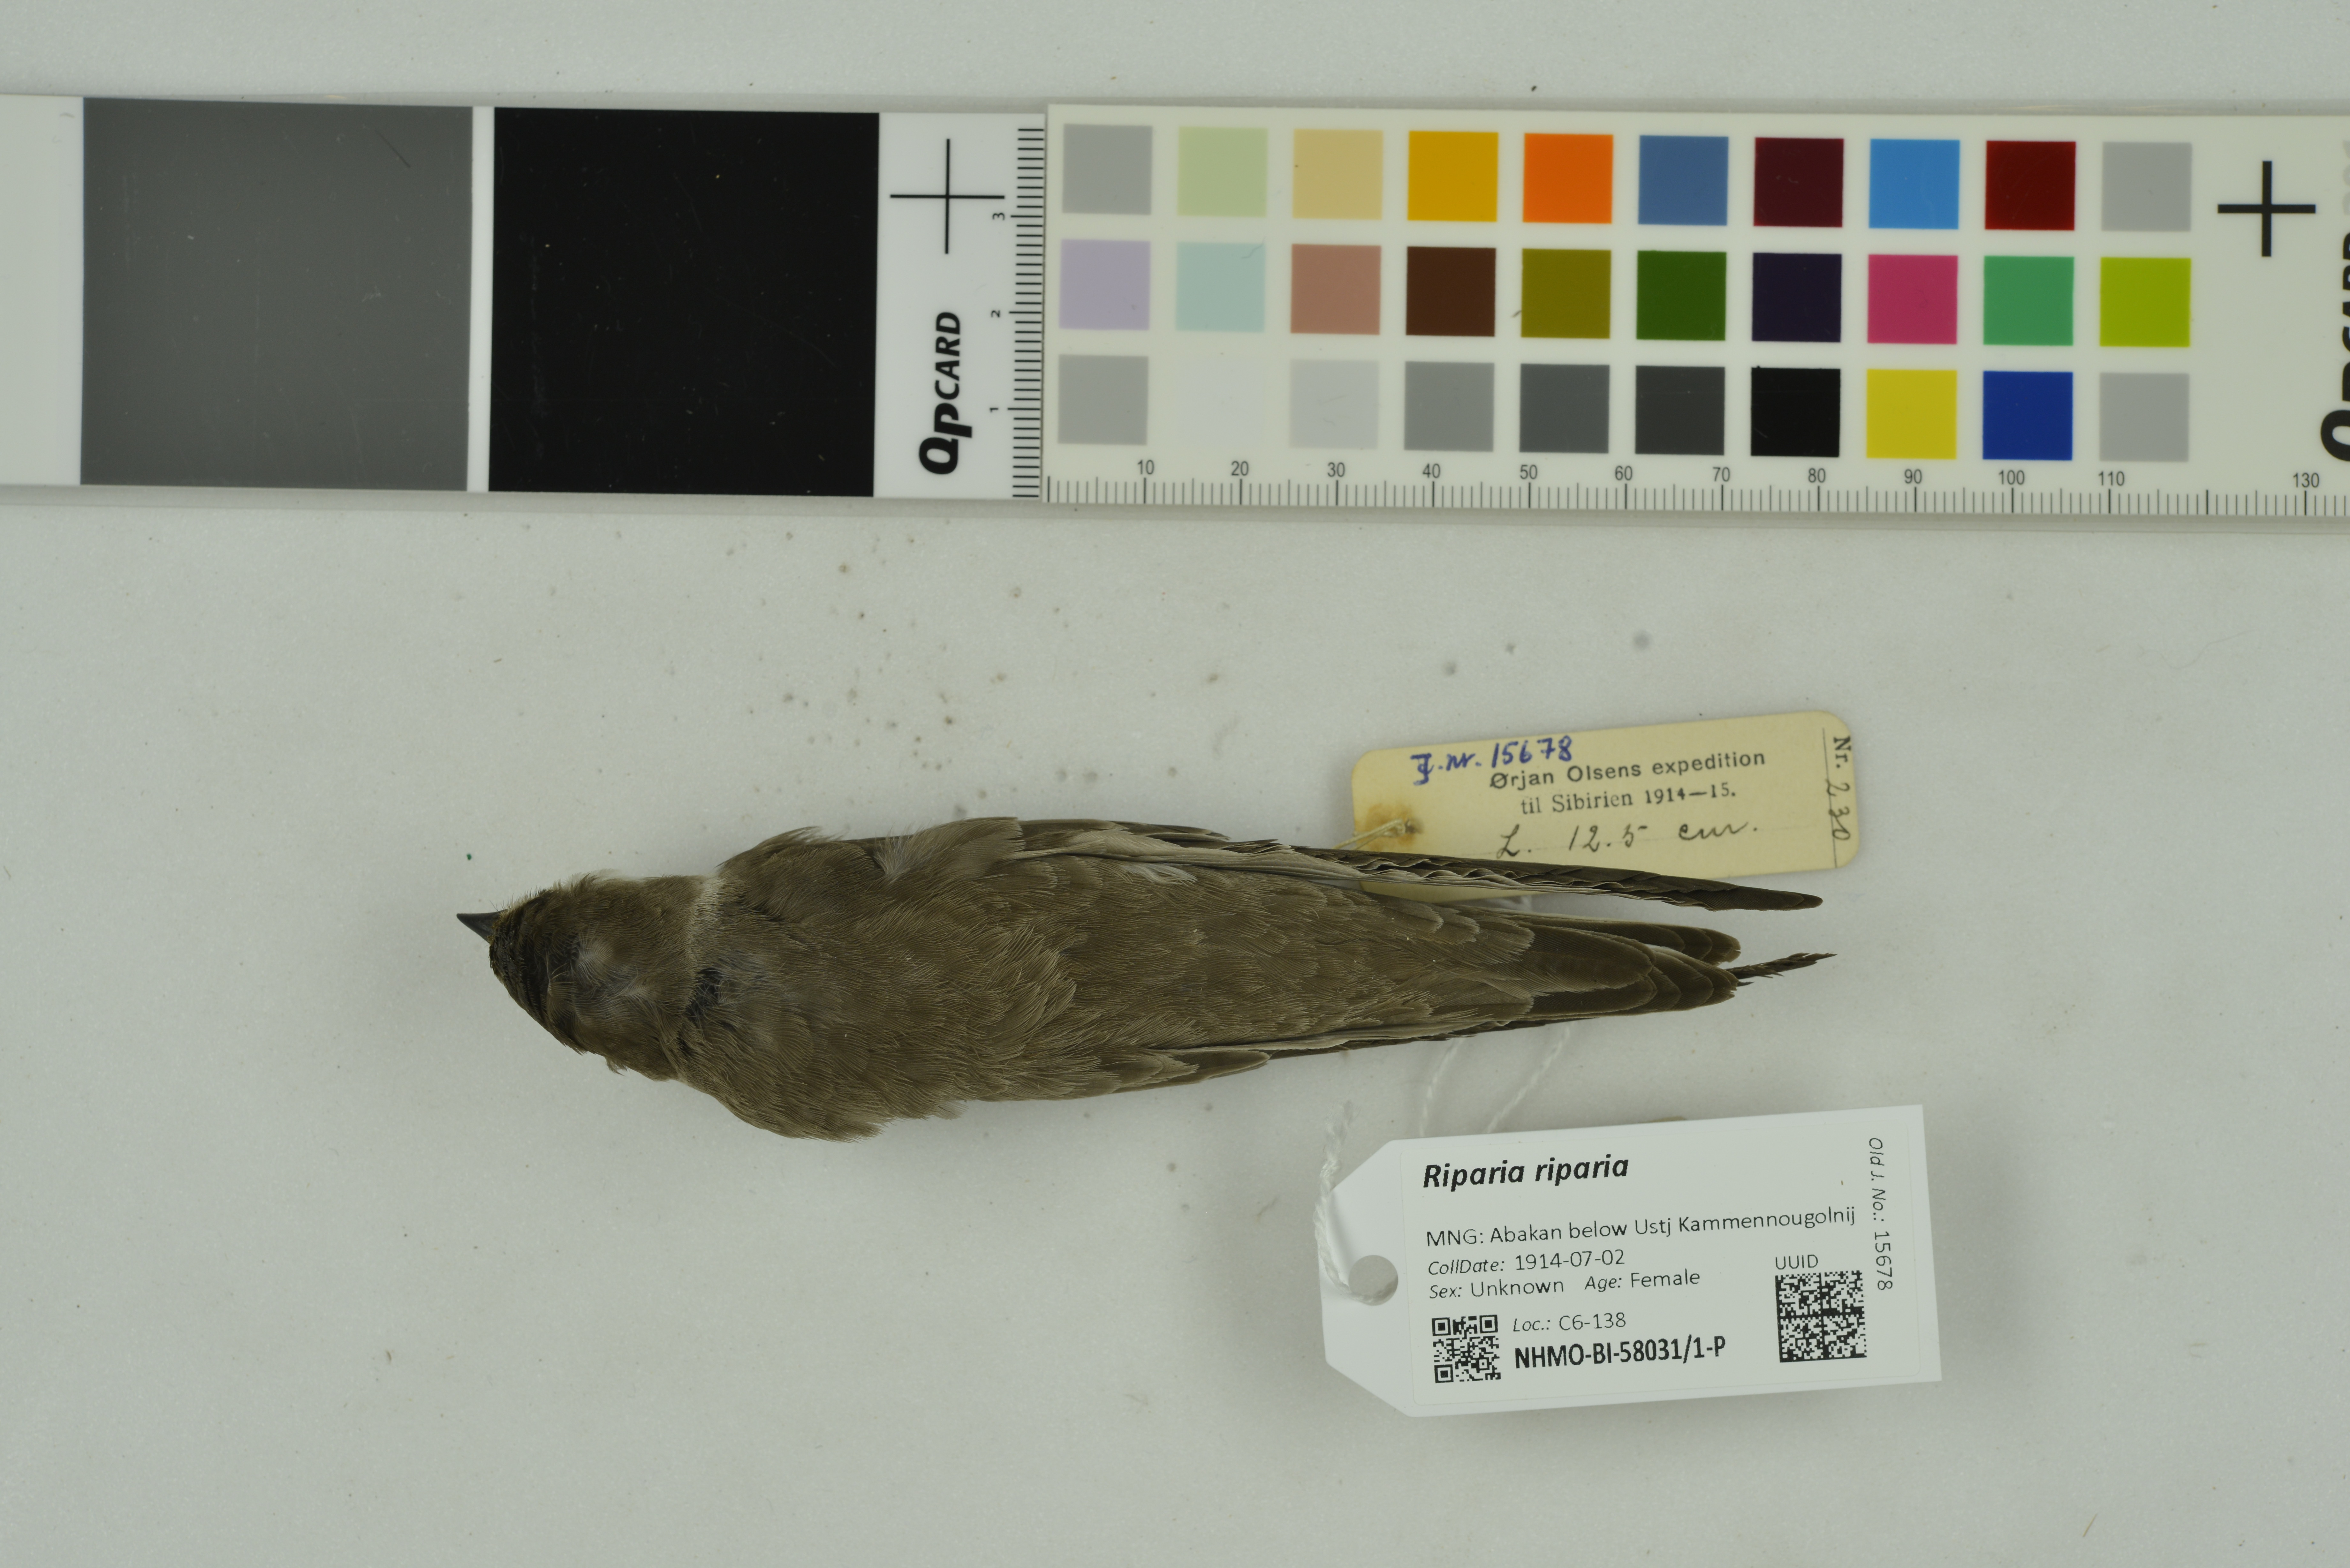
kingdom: Animalia
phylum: Chordata
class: Aves
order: Passeriformes
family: Hirundinidae
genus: Riparia
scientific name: Riparia riparia
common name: Sand martin
